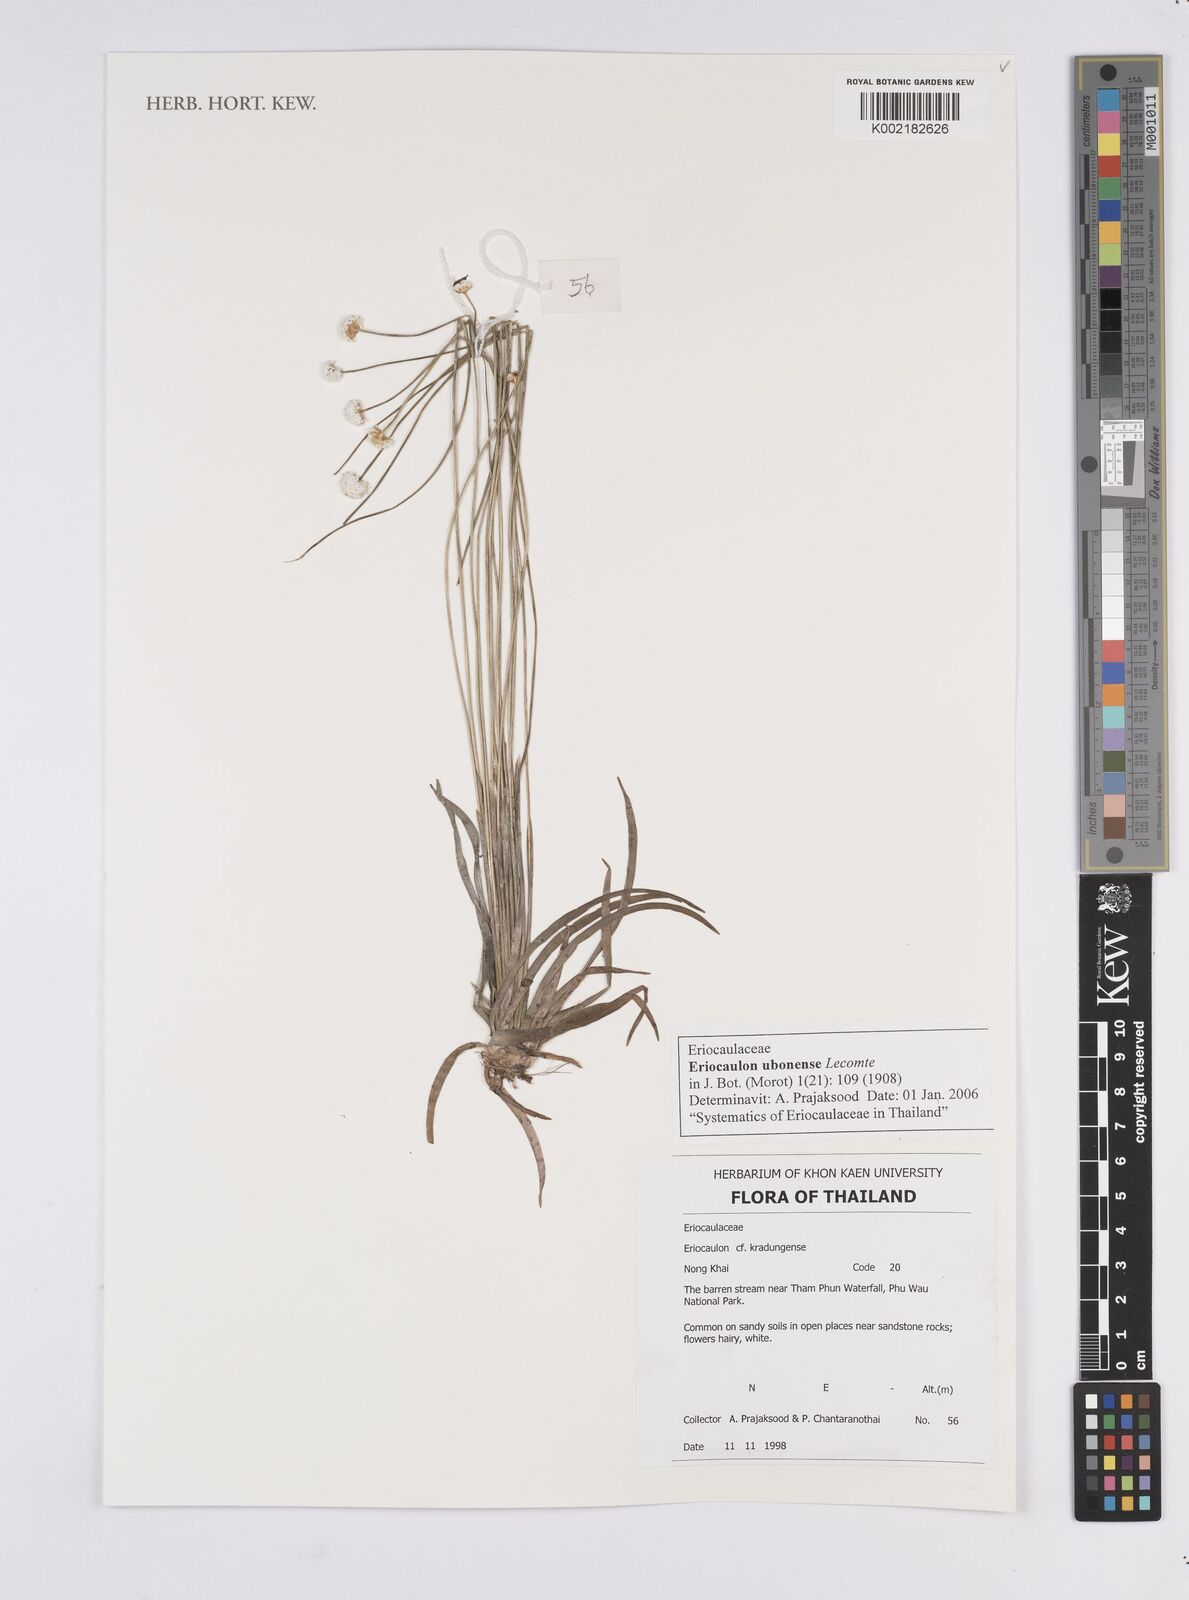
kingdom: Plantae
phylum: Tracheophyta
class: Liliopsida
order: Poales
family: Eriocaulaceae
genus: Eriocaulon
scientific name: Eriocaulon ubonense
